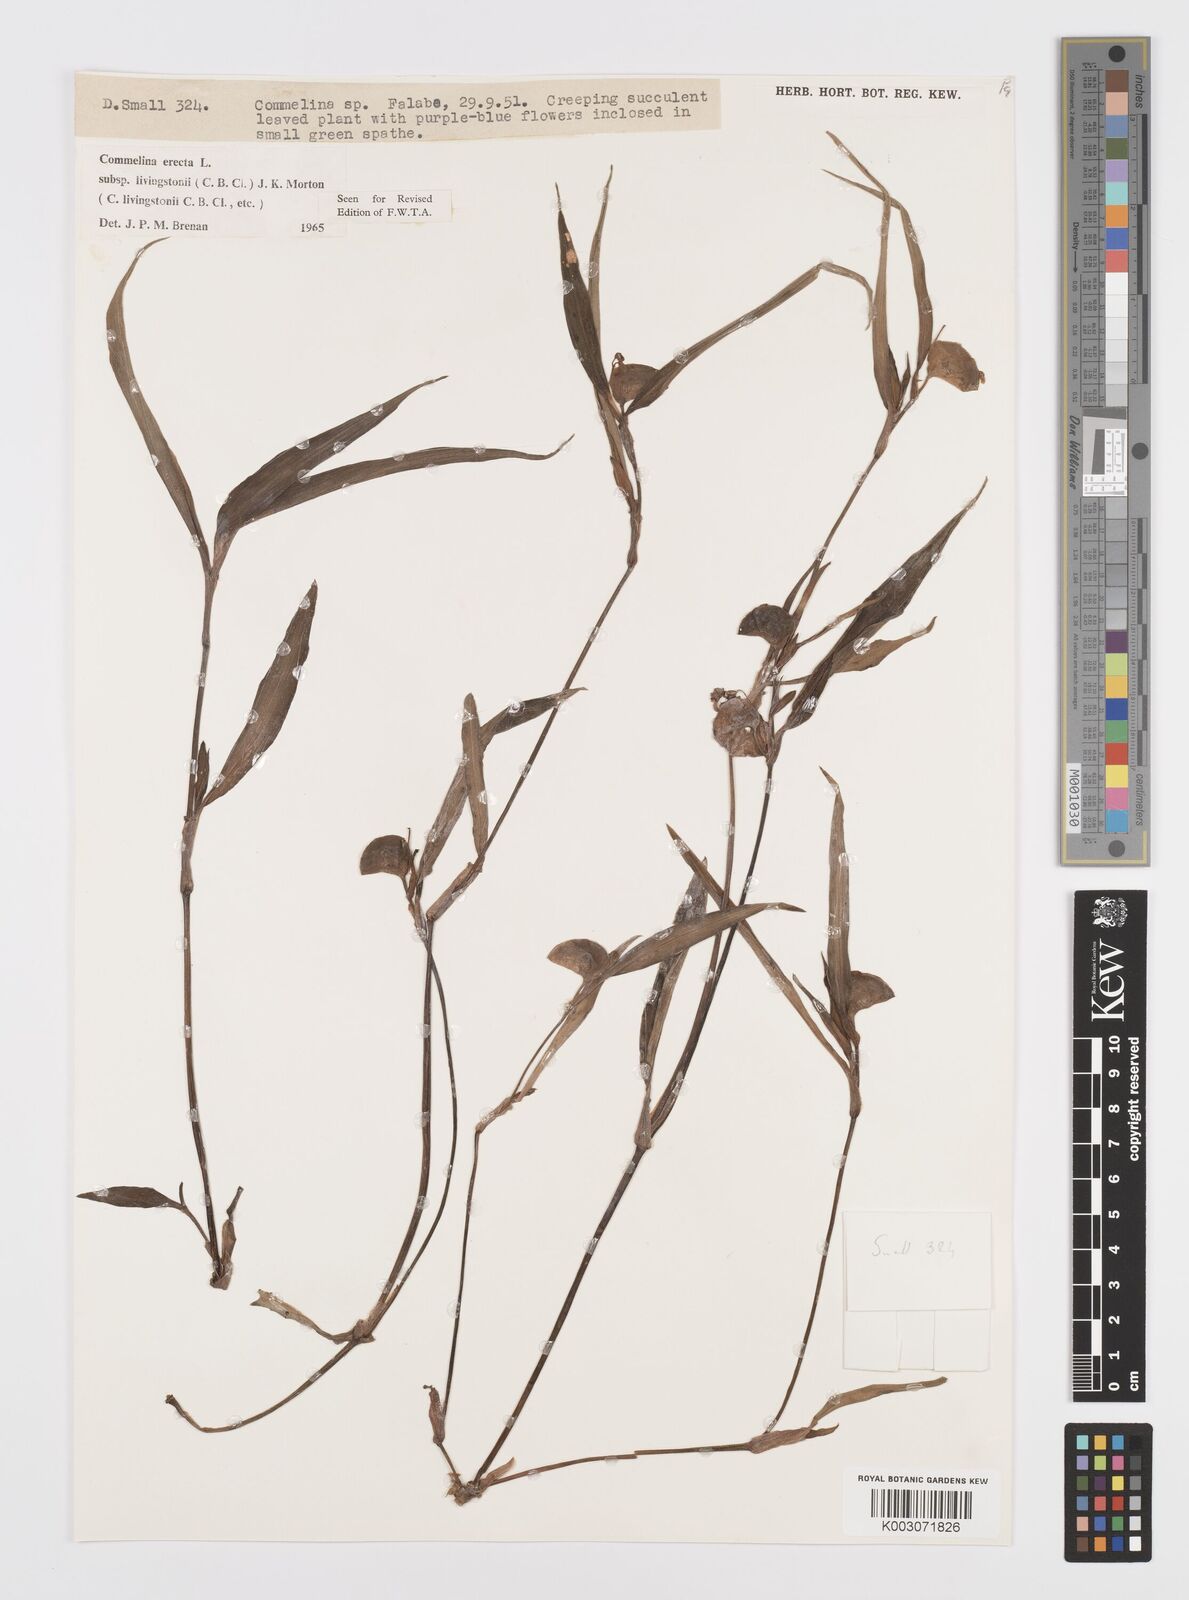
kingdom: Plantae
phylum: Tracheophyta
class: Liliopsida
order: Commelinales
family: Commelinaceae
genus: Commelina
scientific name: Commelina erecta
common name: Blousel blommetjie
